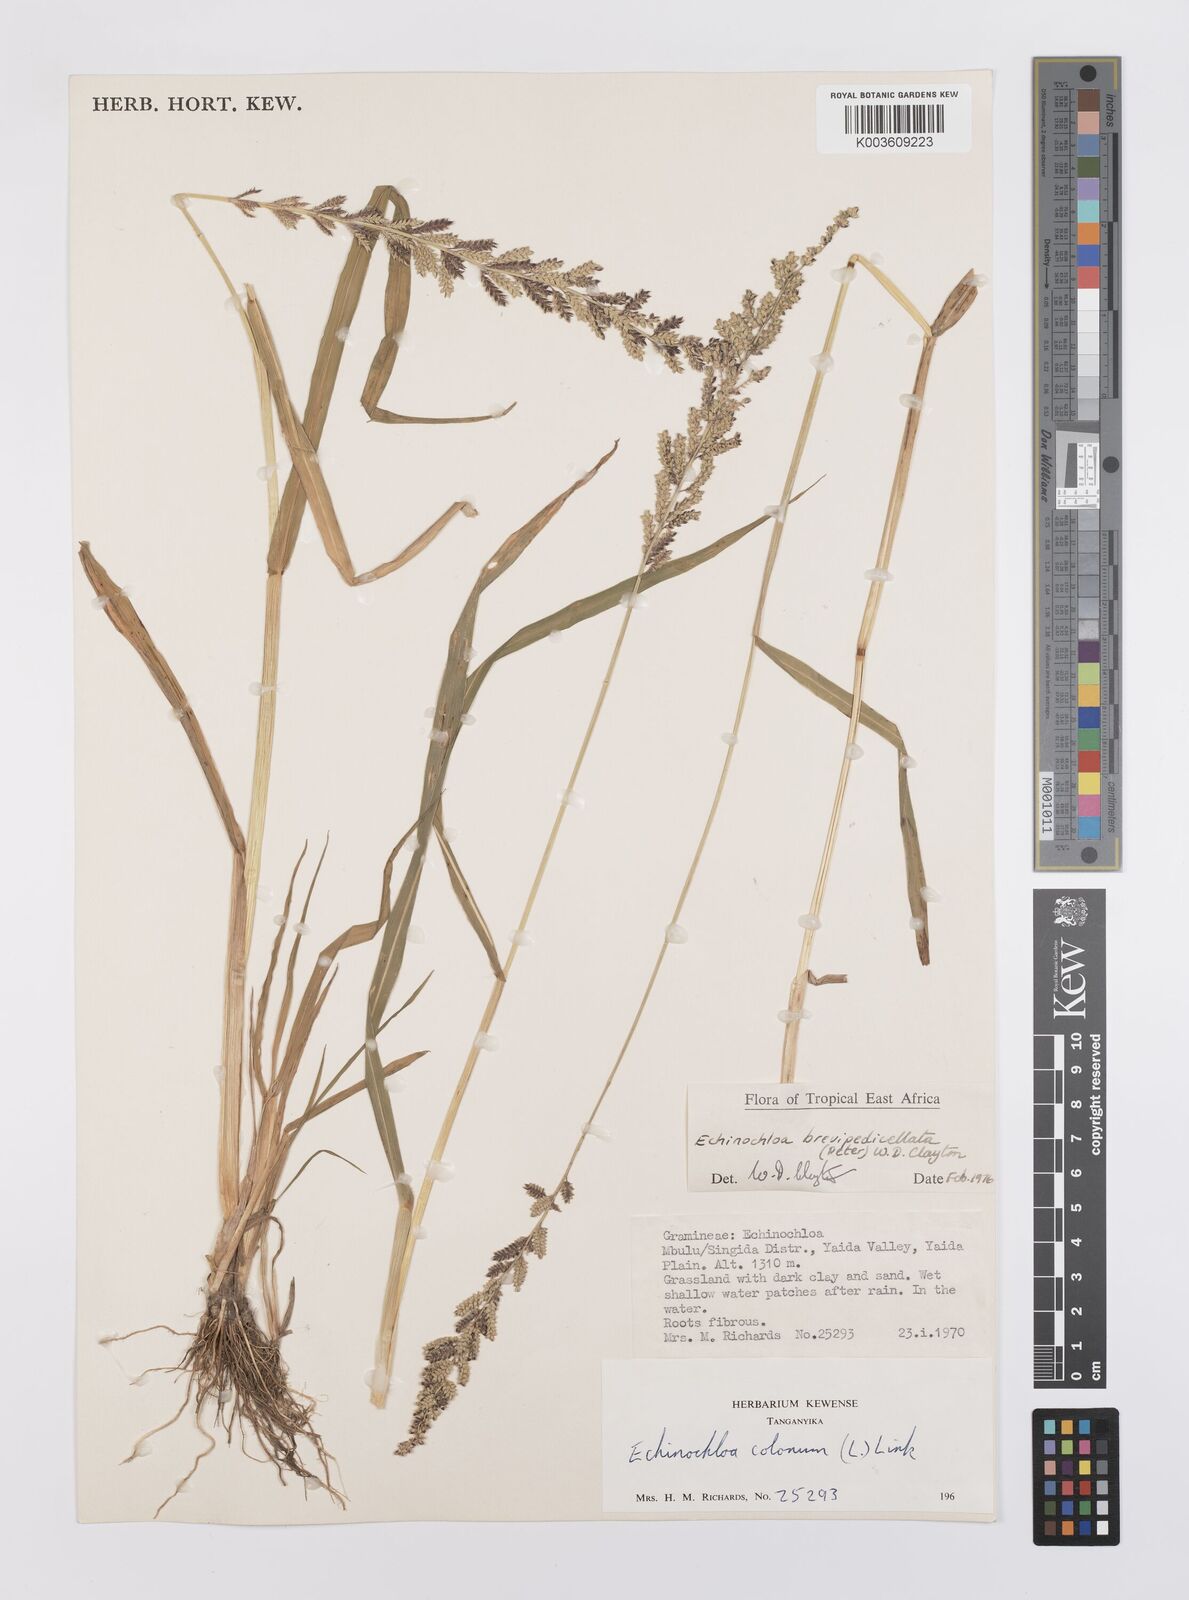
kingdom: Plantae
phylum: Tracheophyta
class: Liliopsida
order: Poales
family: Poaceae
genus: Echinochloa
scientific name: Echinochloa brevipedicellata
